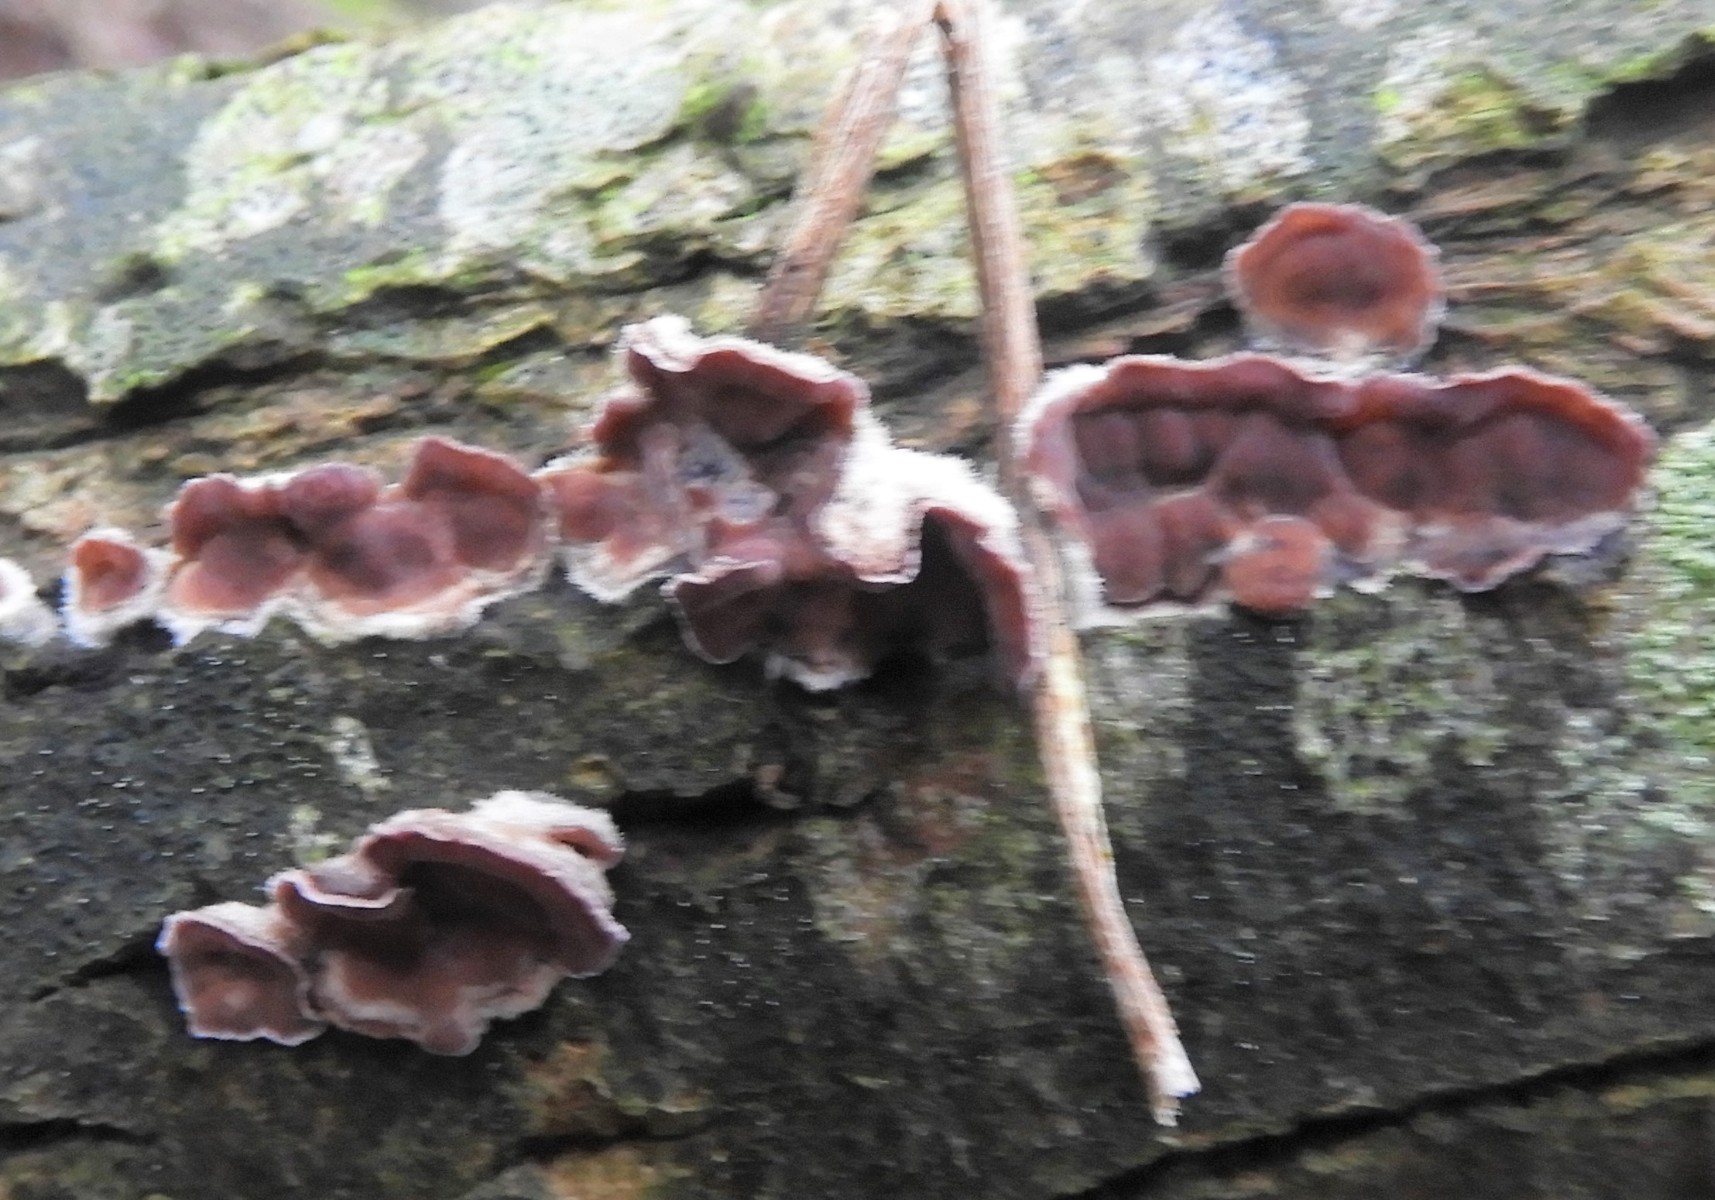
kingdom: Fungi
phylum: Basidiomycota
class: Agaricomycetes
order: Agaricales
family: Cyphellaceae
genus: Chondrostereum
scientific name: Chondrostereum purpureum
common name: purpurlædersvamp
